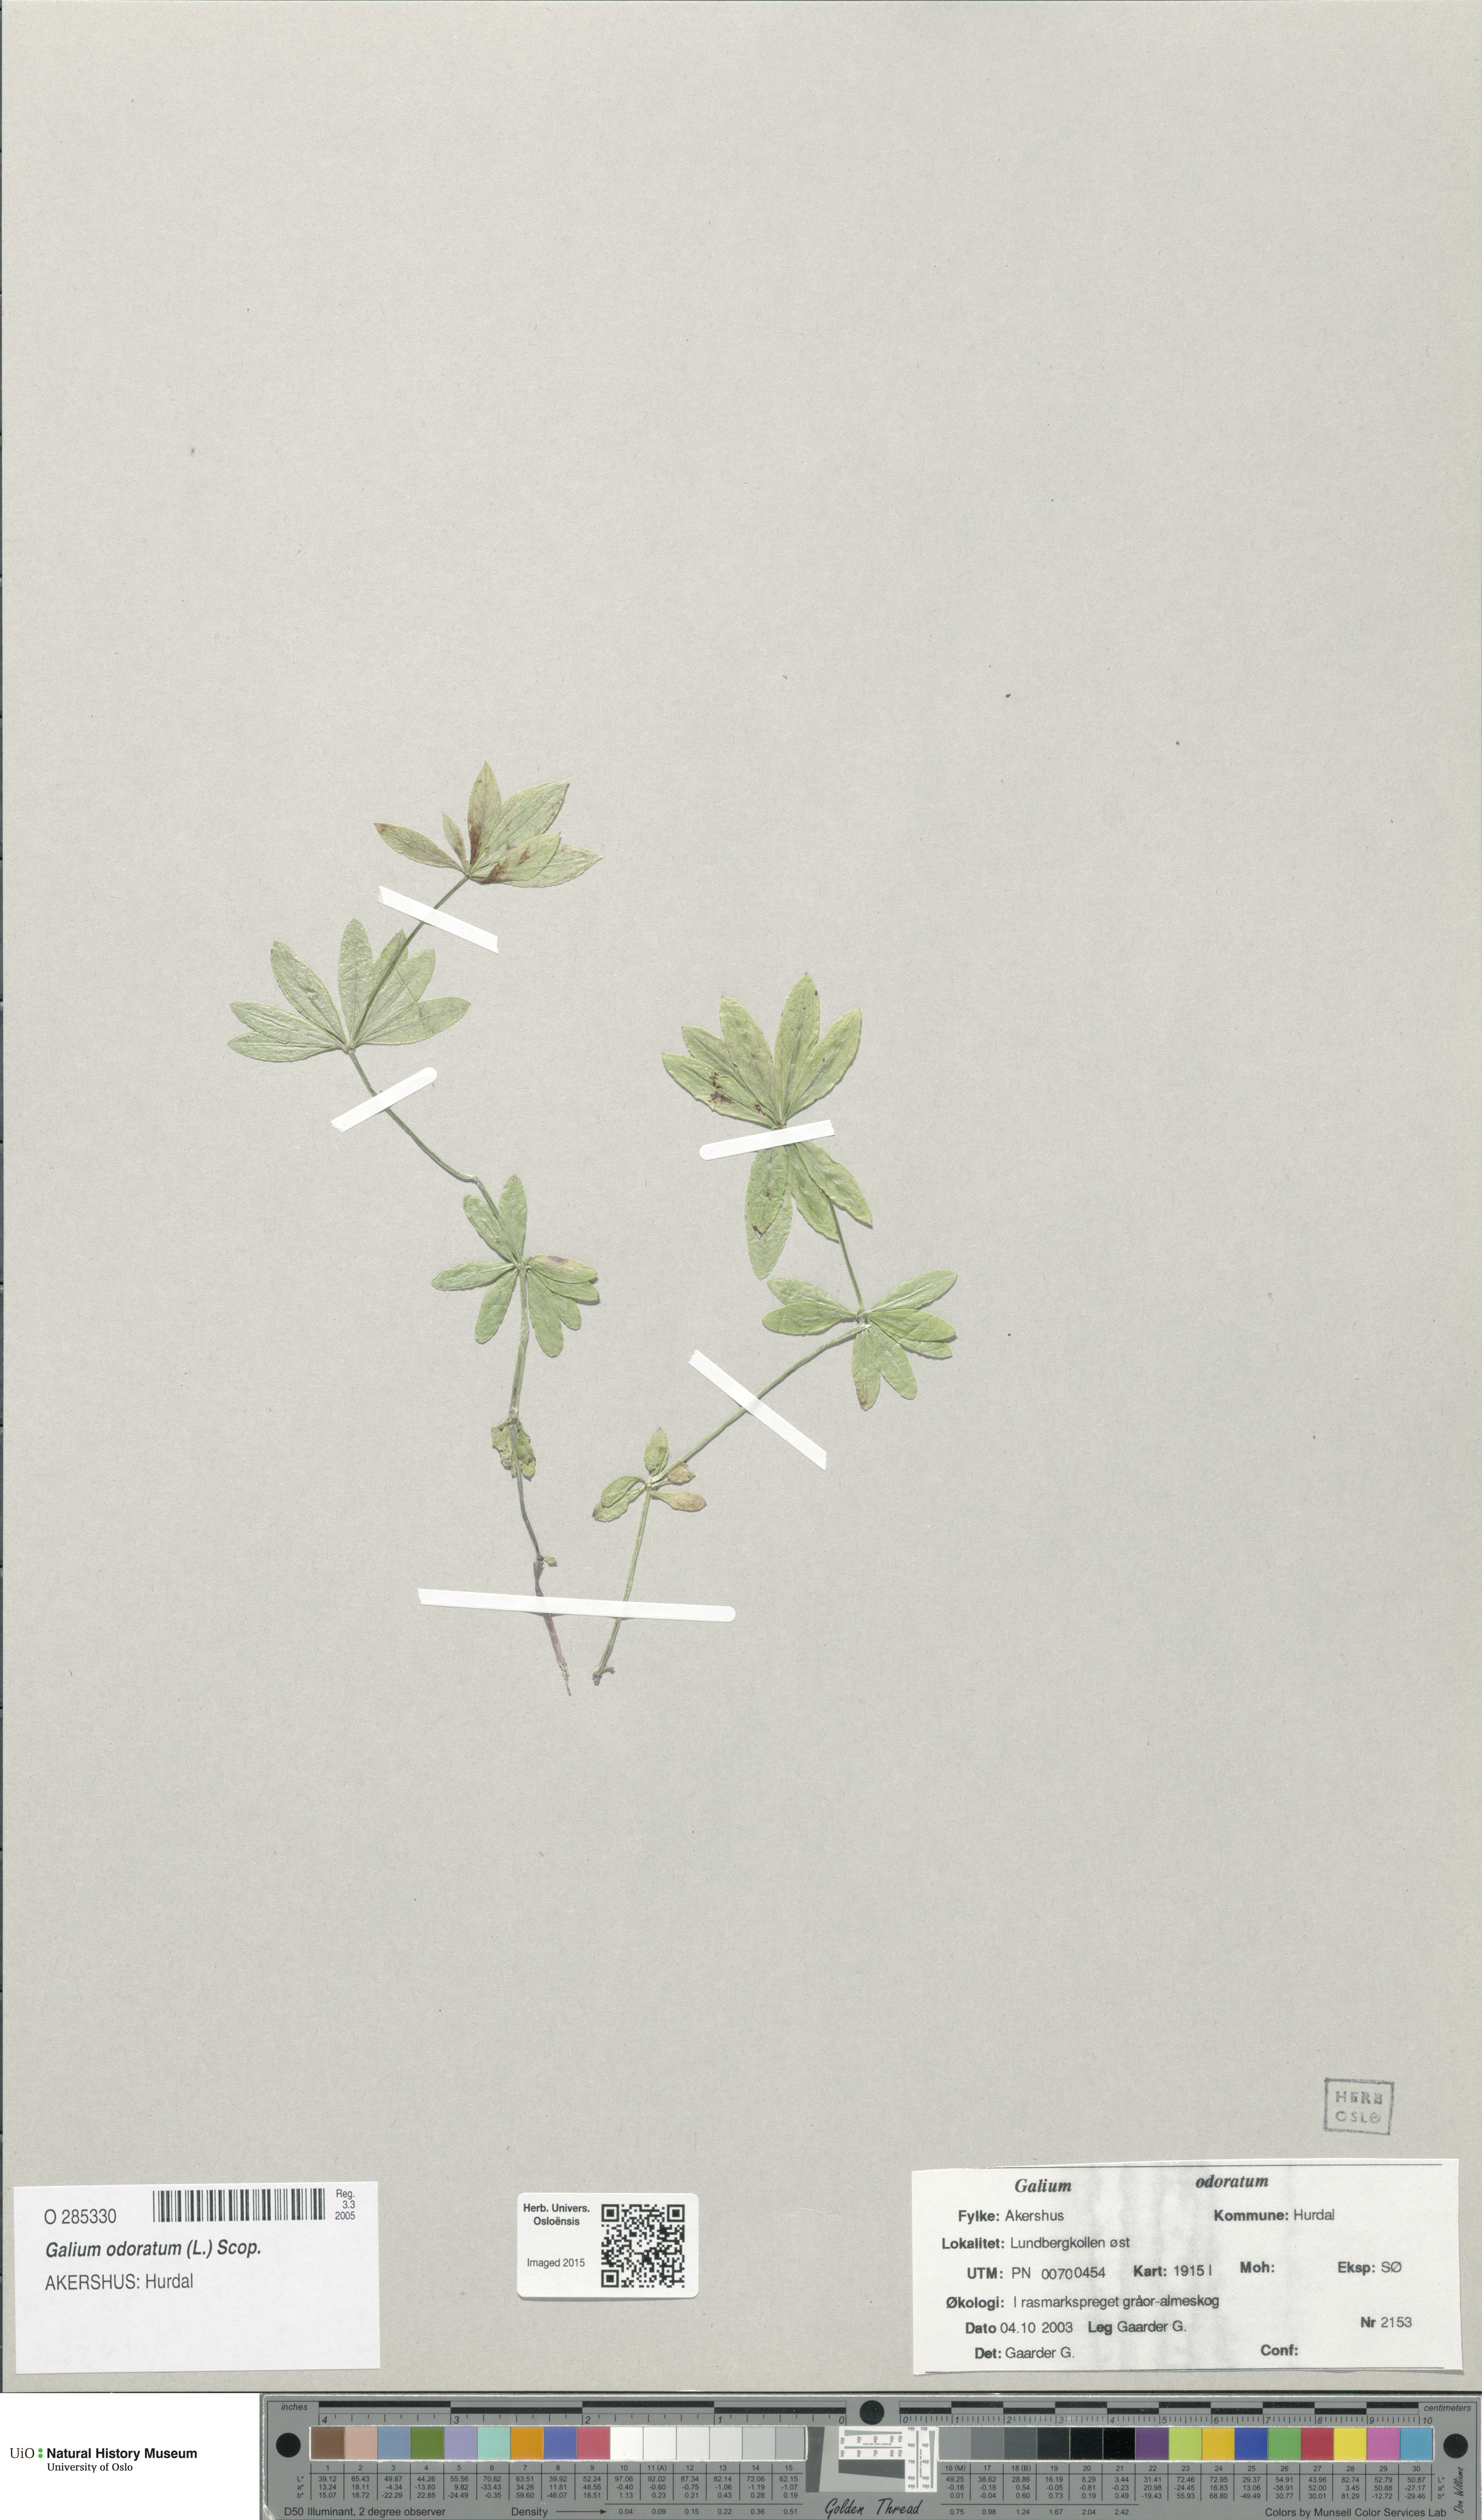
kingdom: Plantae
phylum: Tracheophyta
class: Magnoliopsida
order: Gentianales
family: Rubiaceae
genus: Galium
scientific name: Galium odoratum
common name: Sweet woodruff
